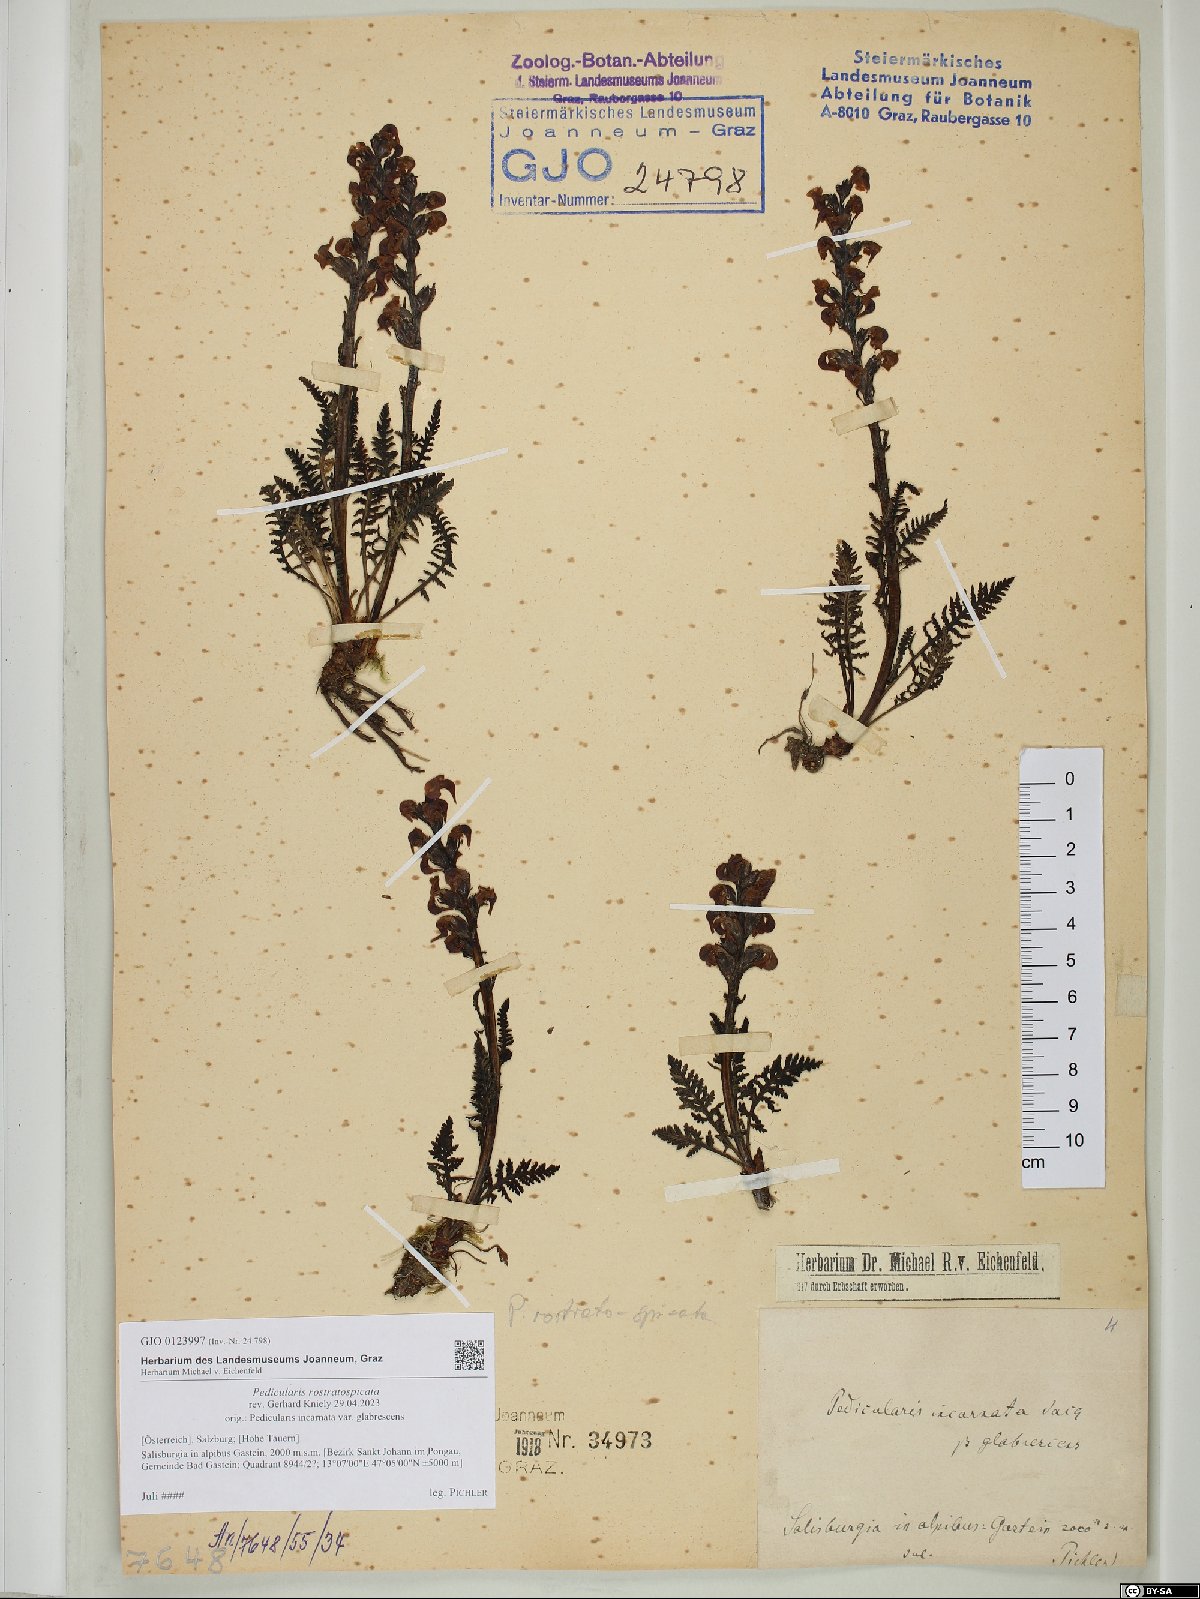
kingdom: Plantae
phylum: Tracheophyta
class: Magnoliopsida
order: Lamiales
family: Orobanchaceae
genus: Pedicularis
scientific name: Pedicularis rostratospicata
